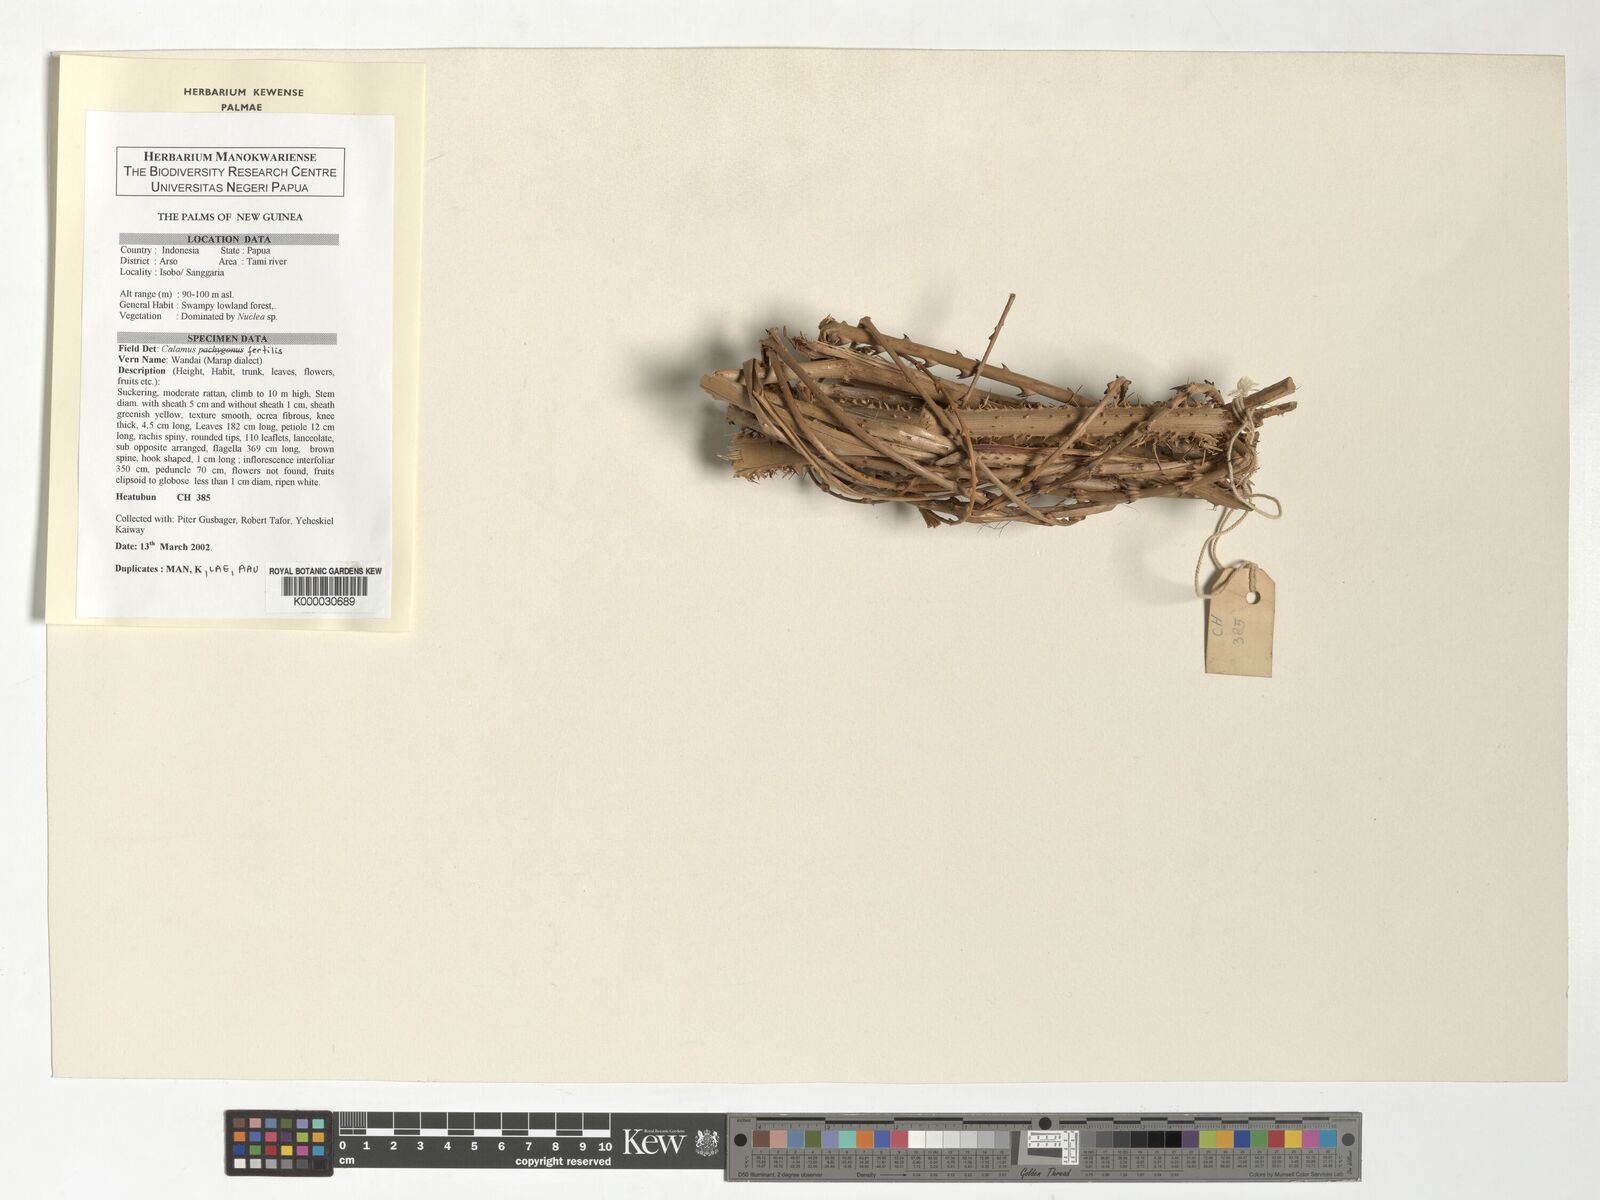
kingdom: Plantae
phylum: Tracheophyta
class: Liliopsida
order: Arecales
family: Arecaceae
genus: Calamus
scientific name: Calamus fertilis
